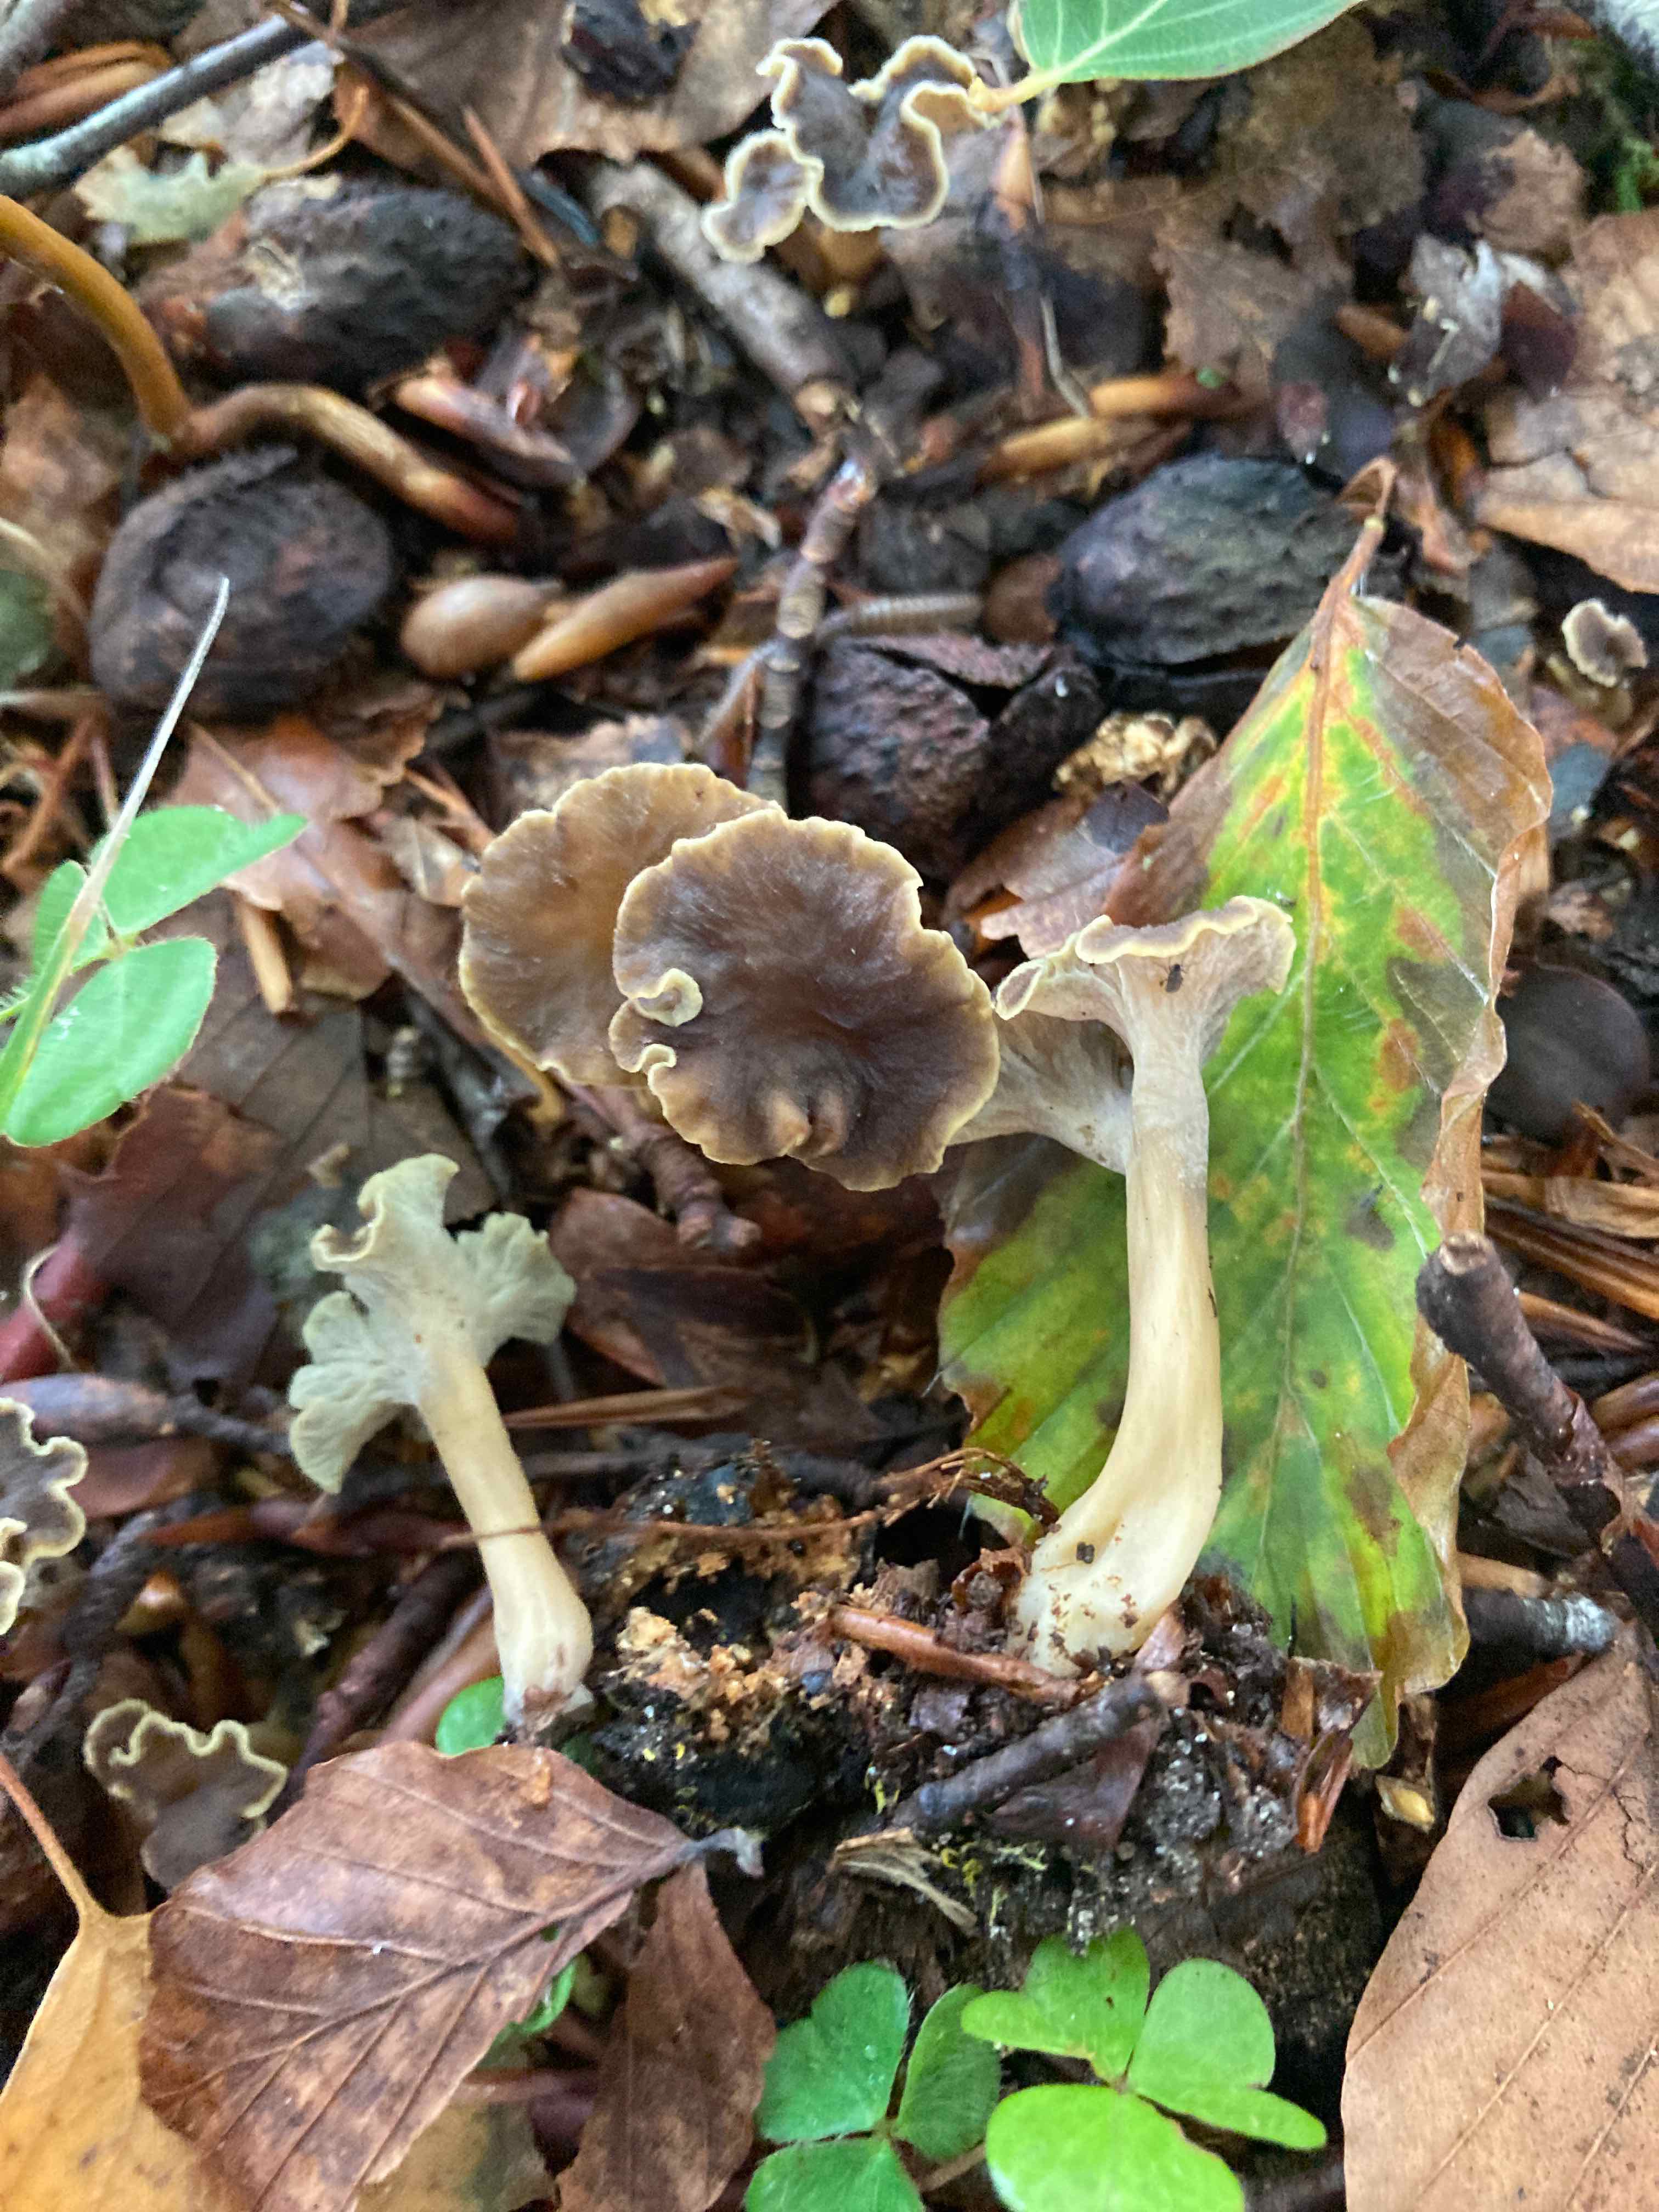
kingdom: Fungi
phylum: Basidiomycota
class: Agaricomycetes
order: Cantharellales
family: Hydnaceae
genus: Craterellus
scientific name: Craterellus undulatus
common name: liden kantarel
